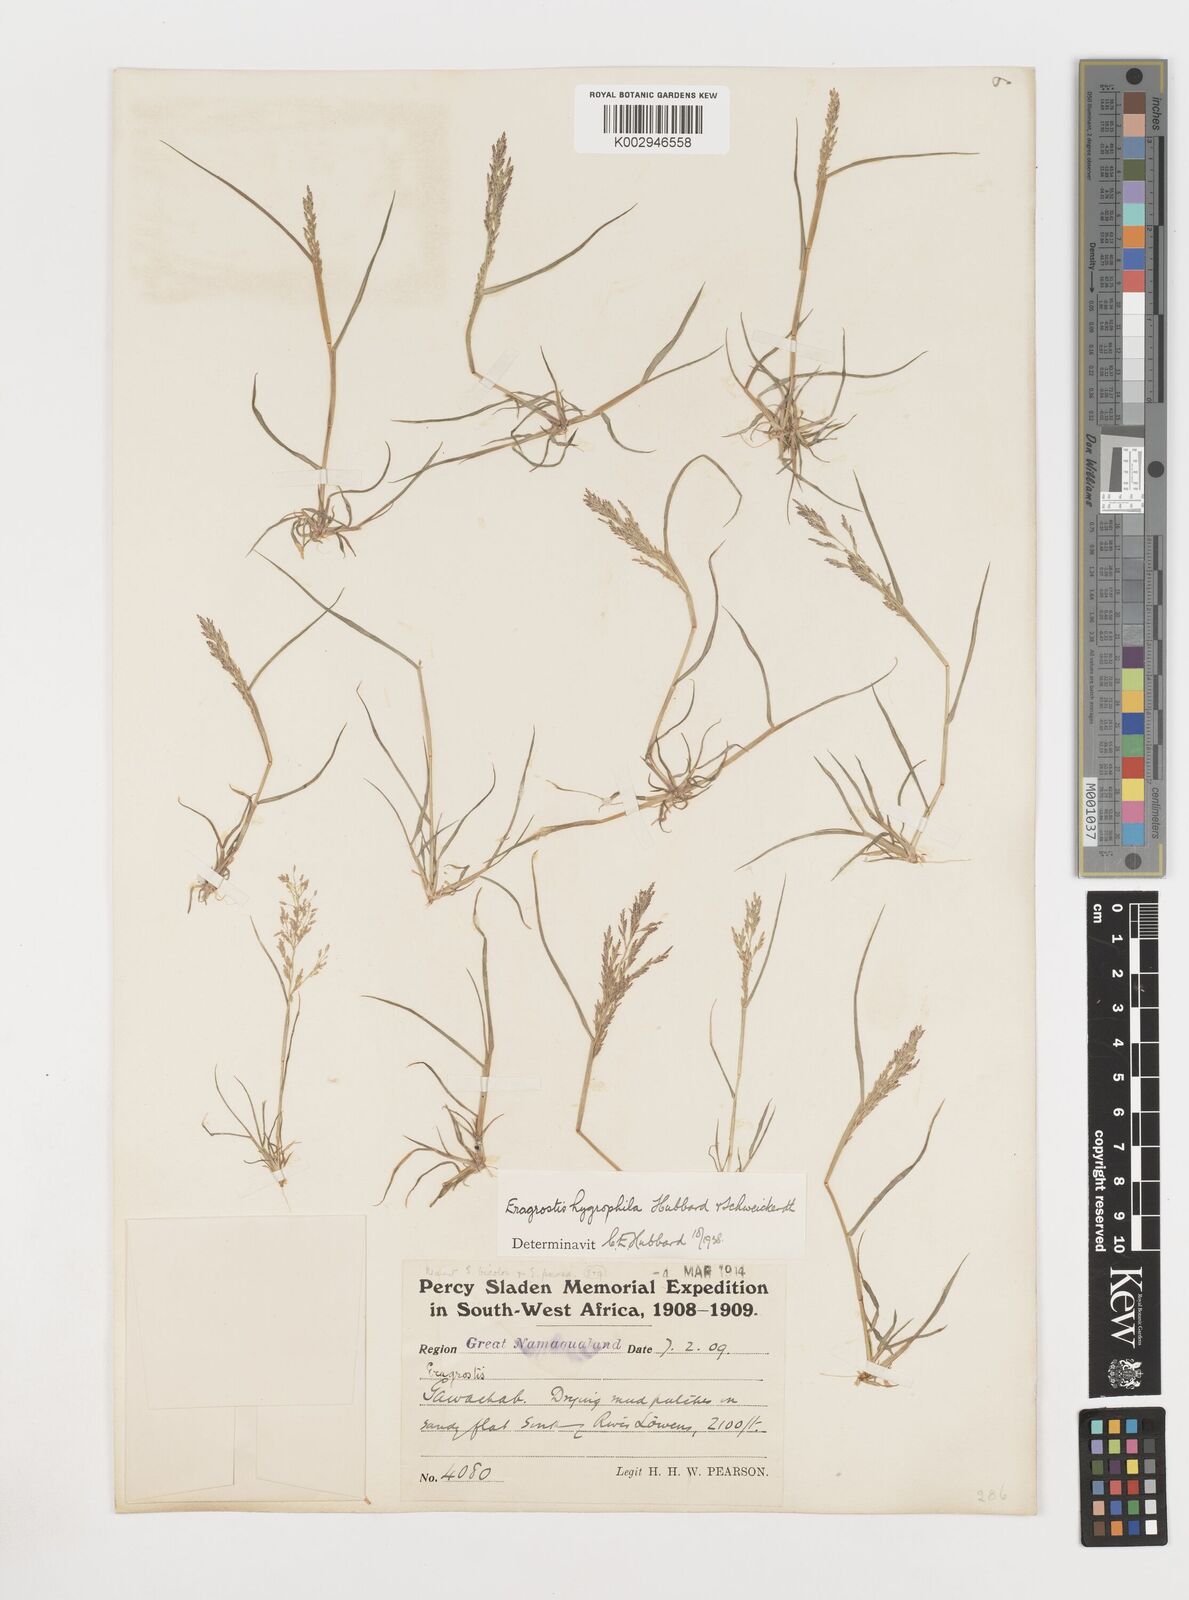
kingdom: Plantae
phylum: Tracheophyta
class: Liliopsida
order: Poales
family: Poaceae
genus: Eragrostis
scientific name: Eragrostis homomalla
